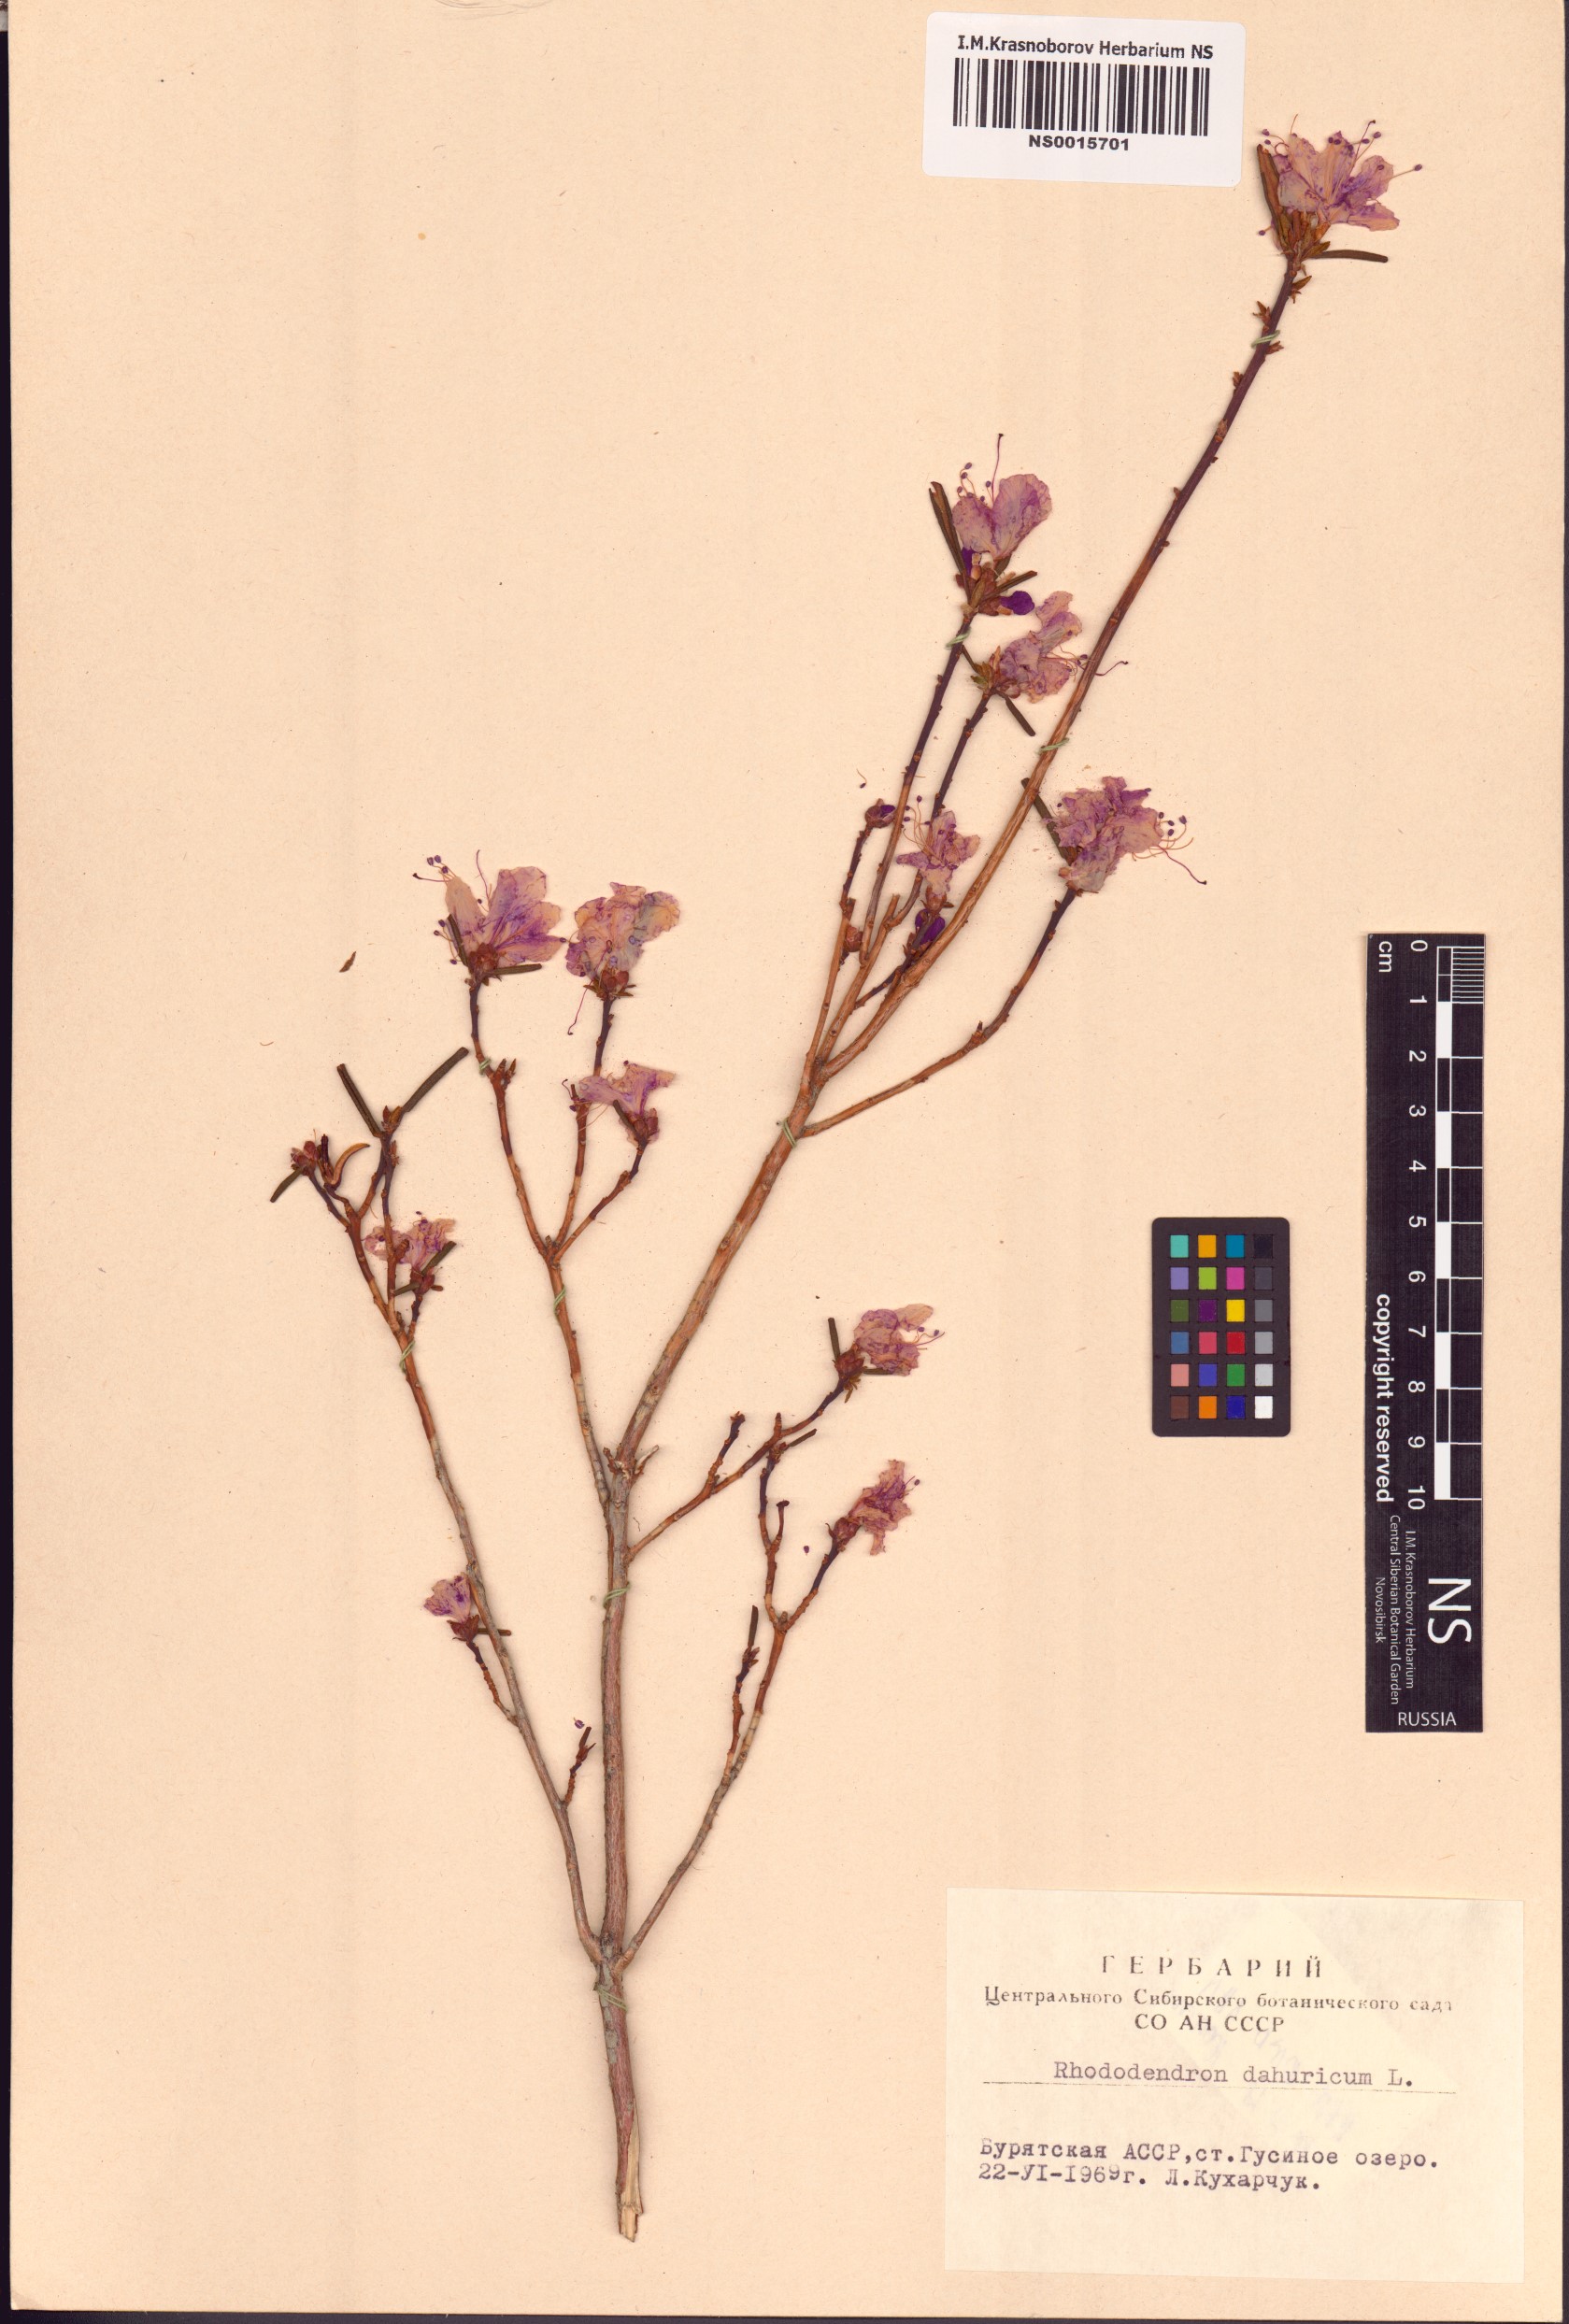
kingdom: Plantae
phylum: Tracheophyta
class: Magnoliopsida
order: Ericales
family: Ericaceae
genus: Rhododendron
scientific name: Rhododendron dauricum
